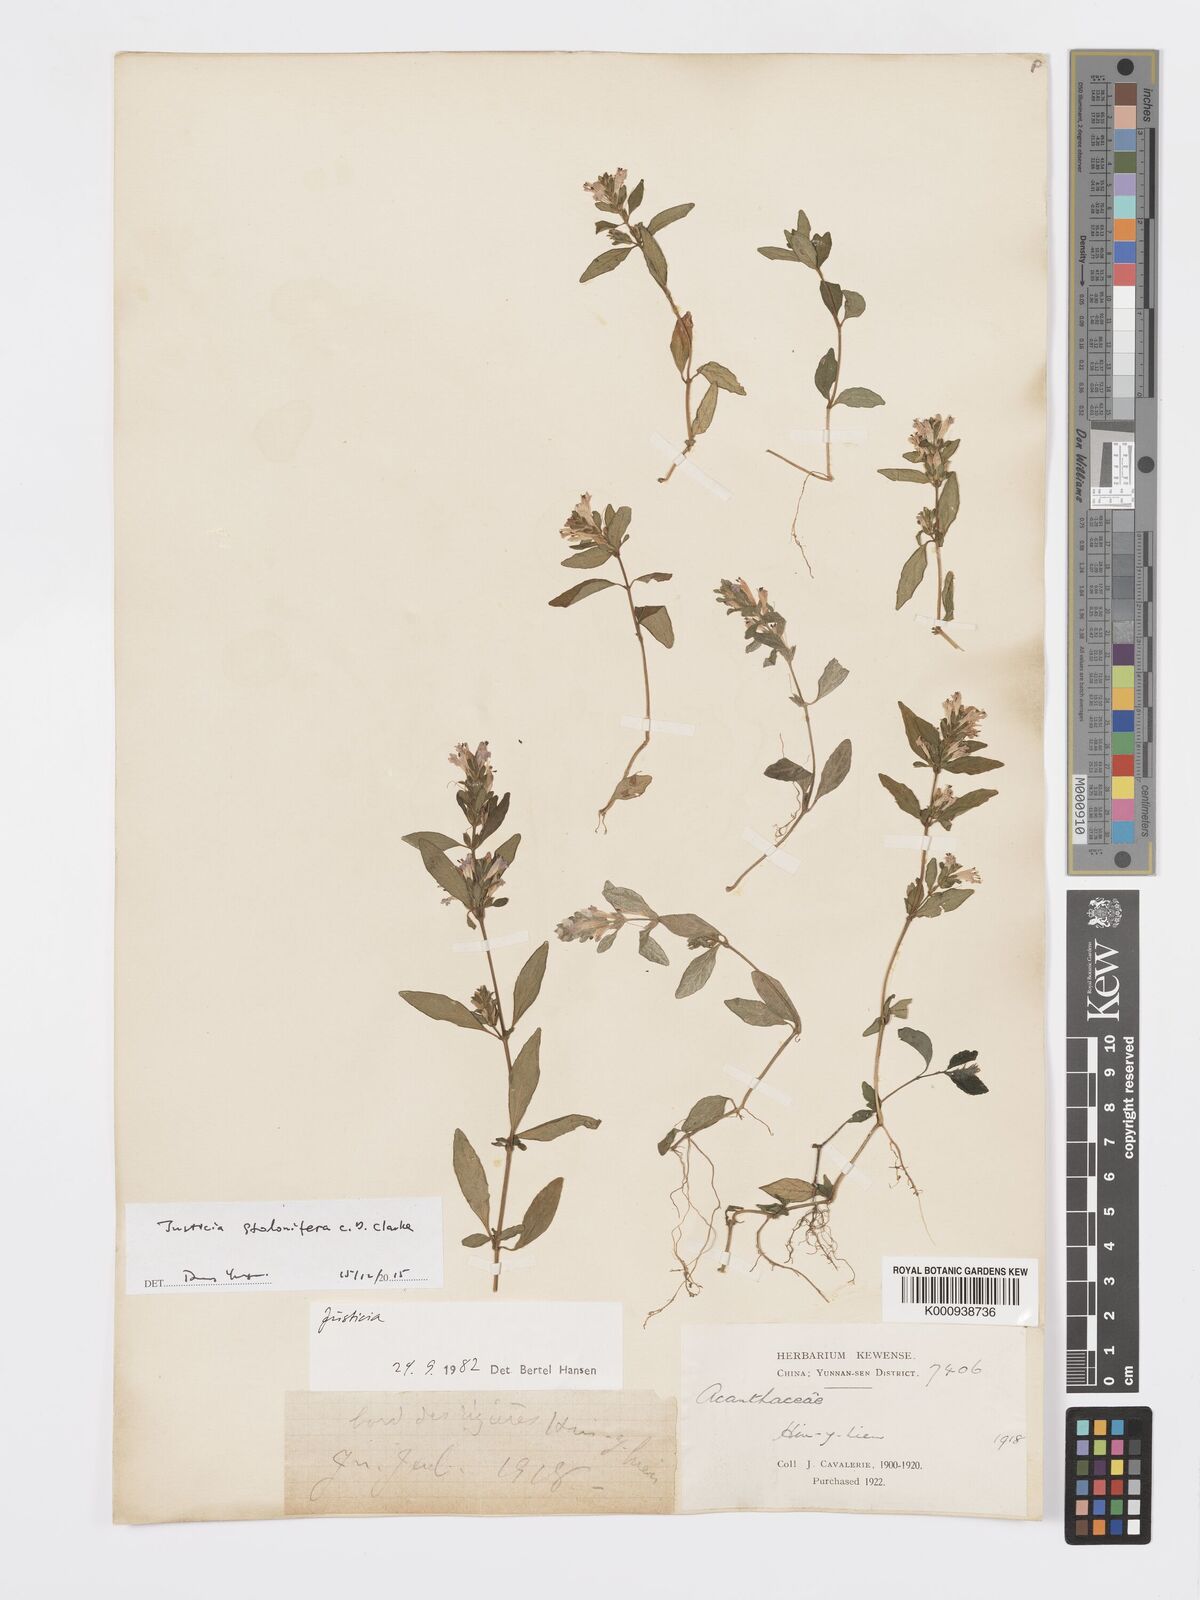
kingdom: Plantae
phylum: Tracheophyta
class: Magnoliopsida
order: Lamiales
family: Acanthaceae
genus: Rungia
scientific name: Rungia stolonifera
